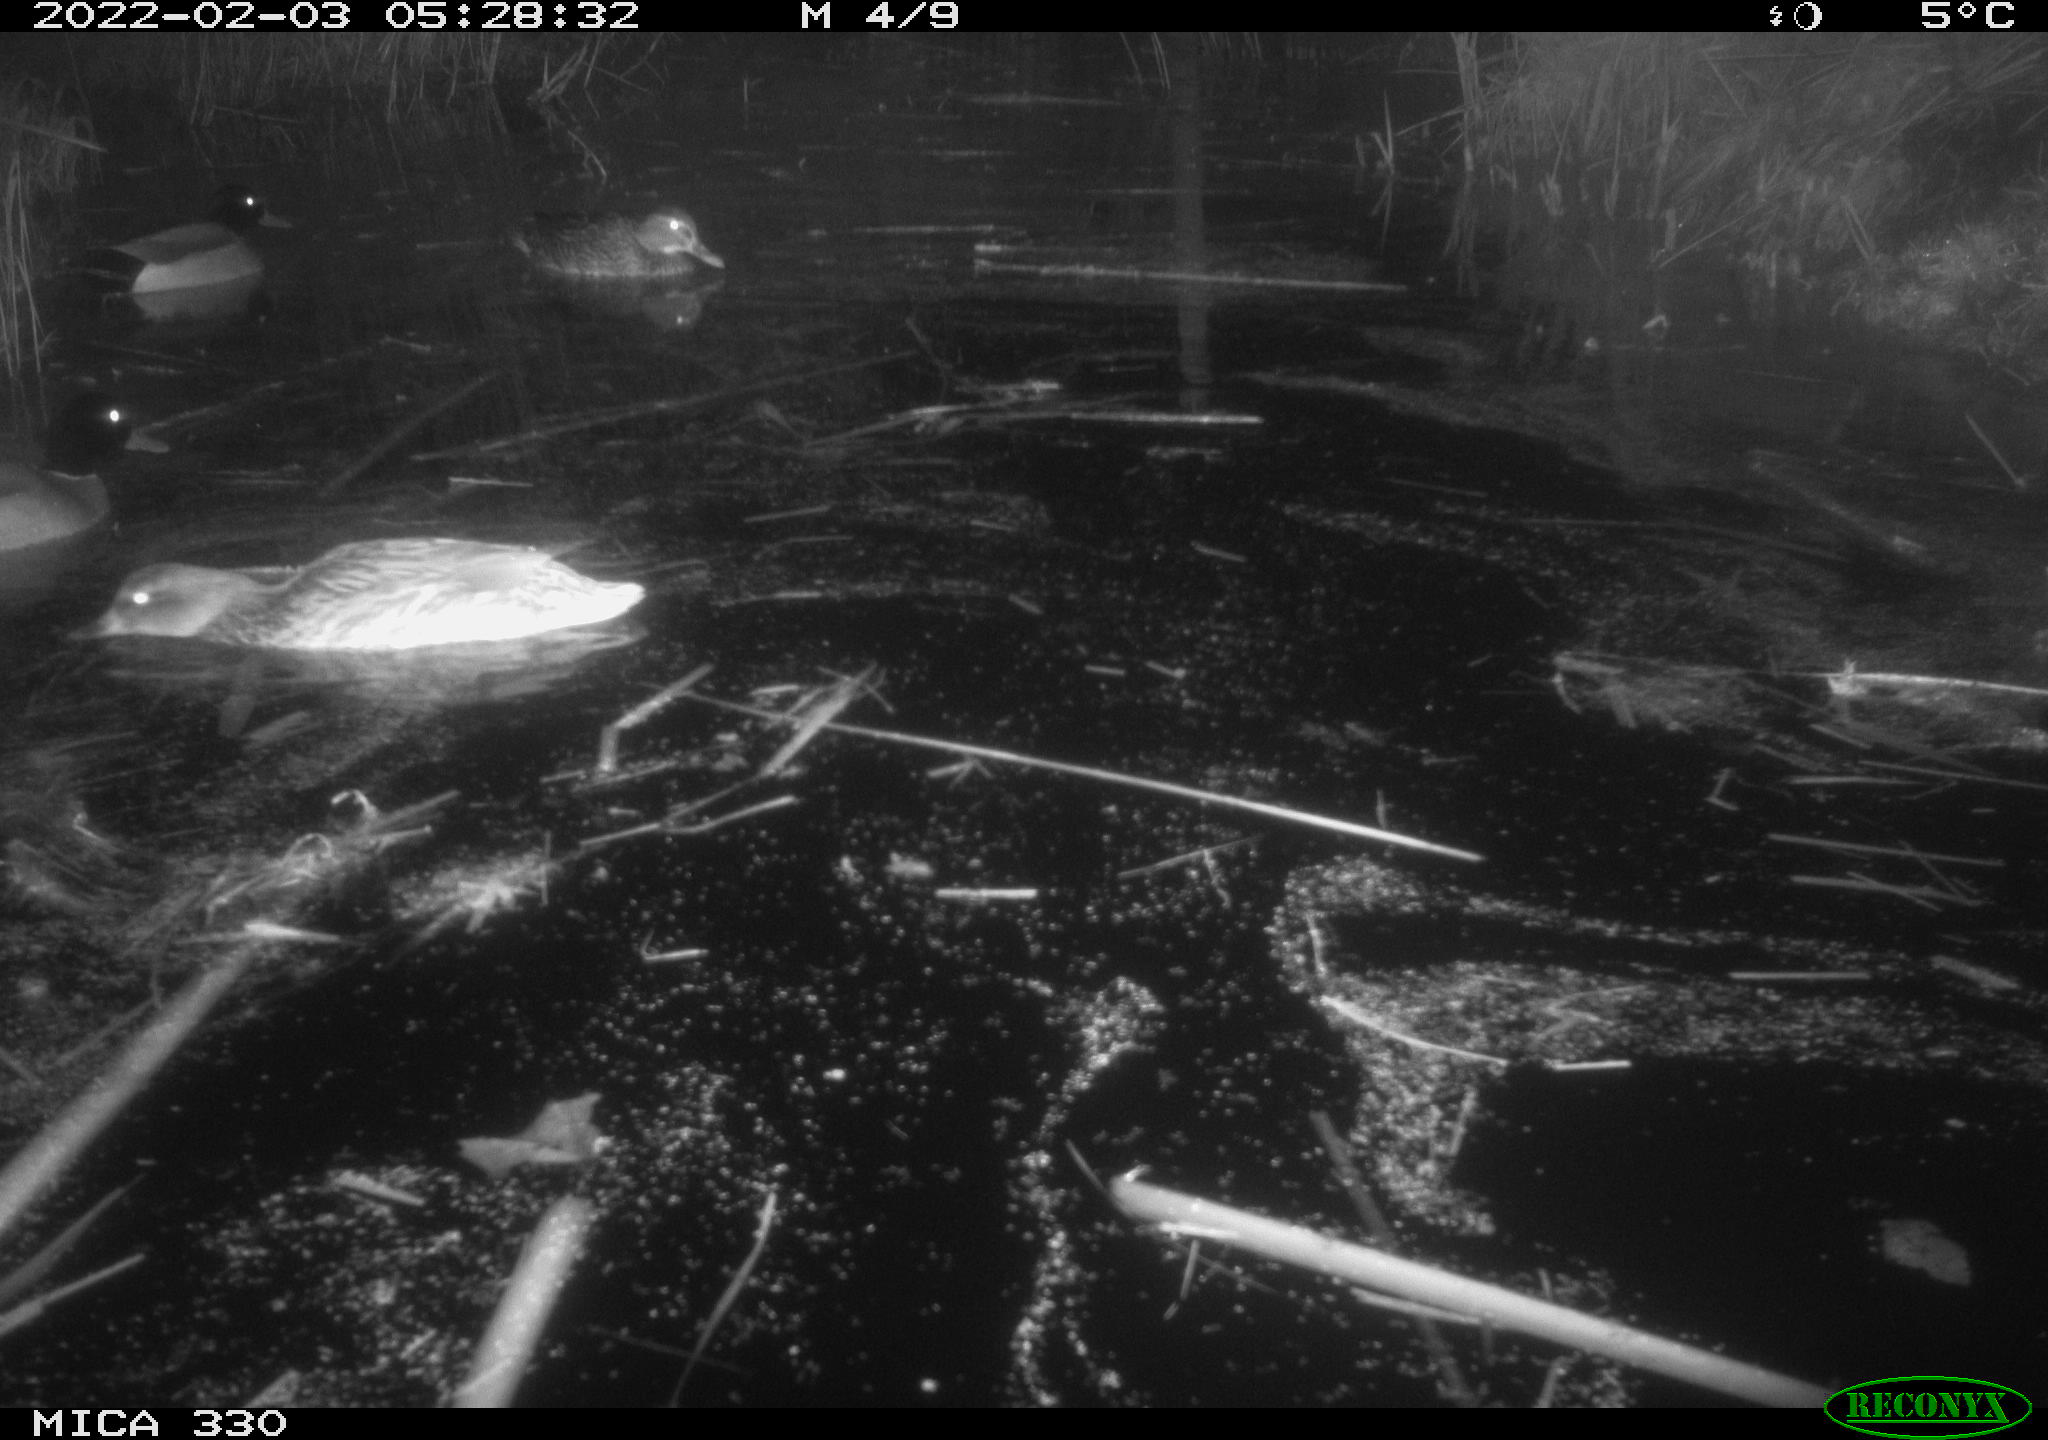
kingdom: Animalia
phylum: Chordata
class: Aves
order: Anseriformes
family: Anatidae
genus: Anas
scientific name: Anas platyrhynchos
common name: Mallard
